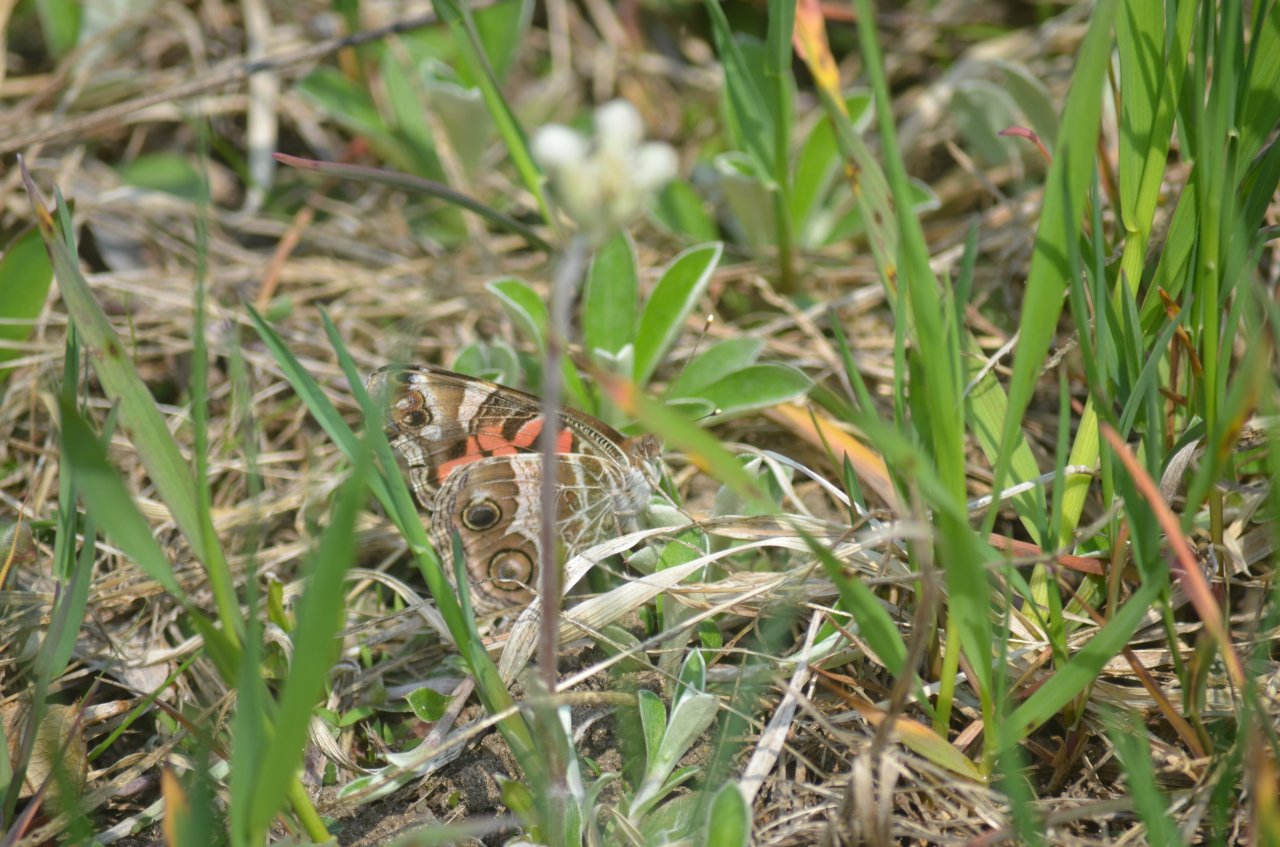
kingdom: Animalia
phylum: Arthropoda
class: Insecta
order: Lepidoptera
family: Nymphalidae
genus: Vanessa
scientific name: Vanessa virginiensis
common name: American Lady
